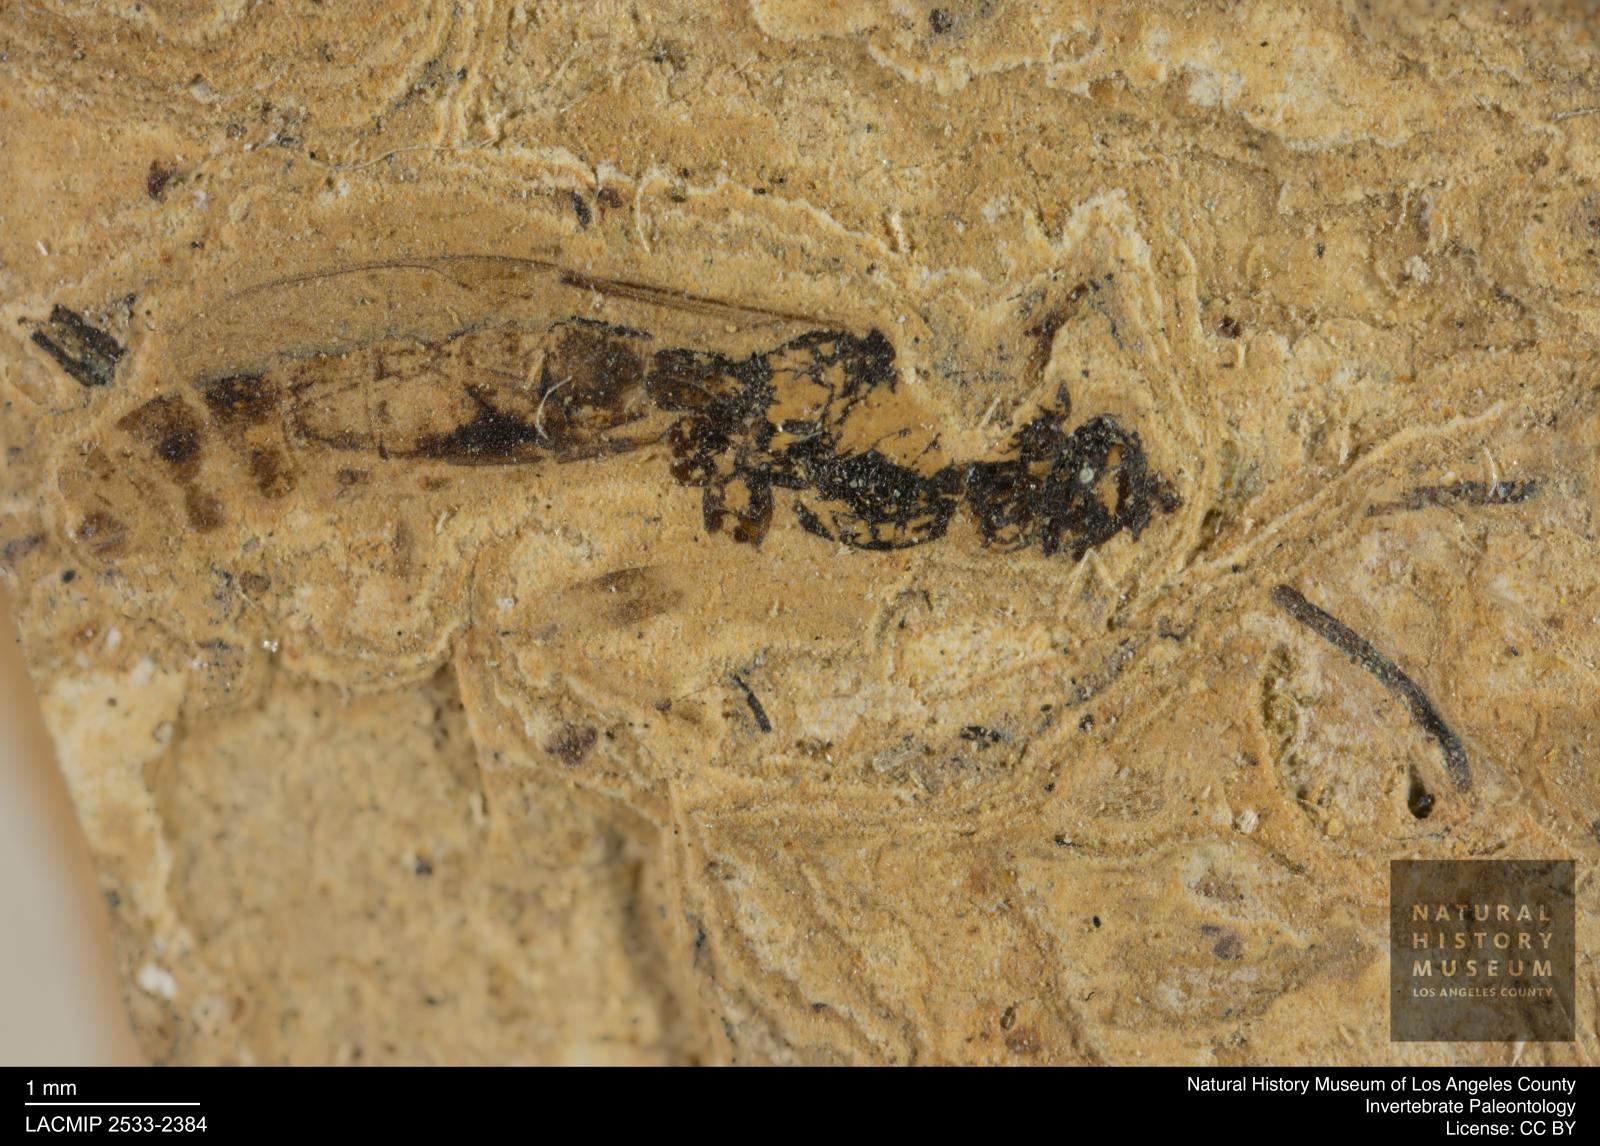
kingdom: Animalia
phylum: Arthropoda
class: Insecta
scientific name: Insecta
